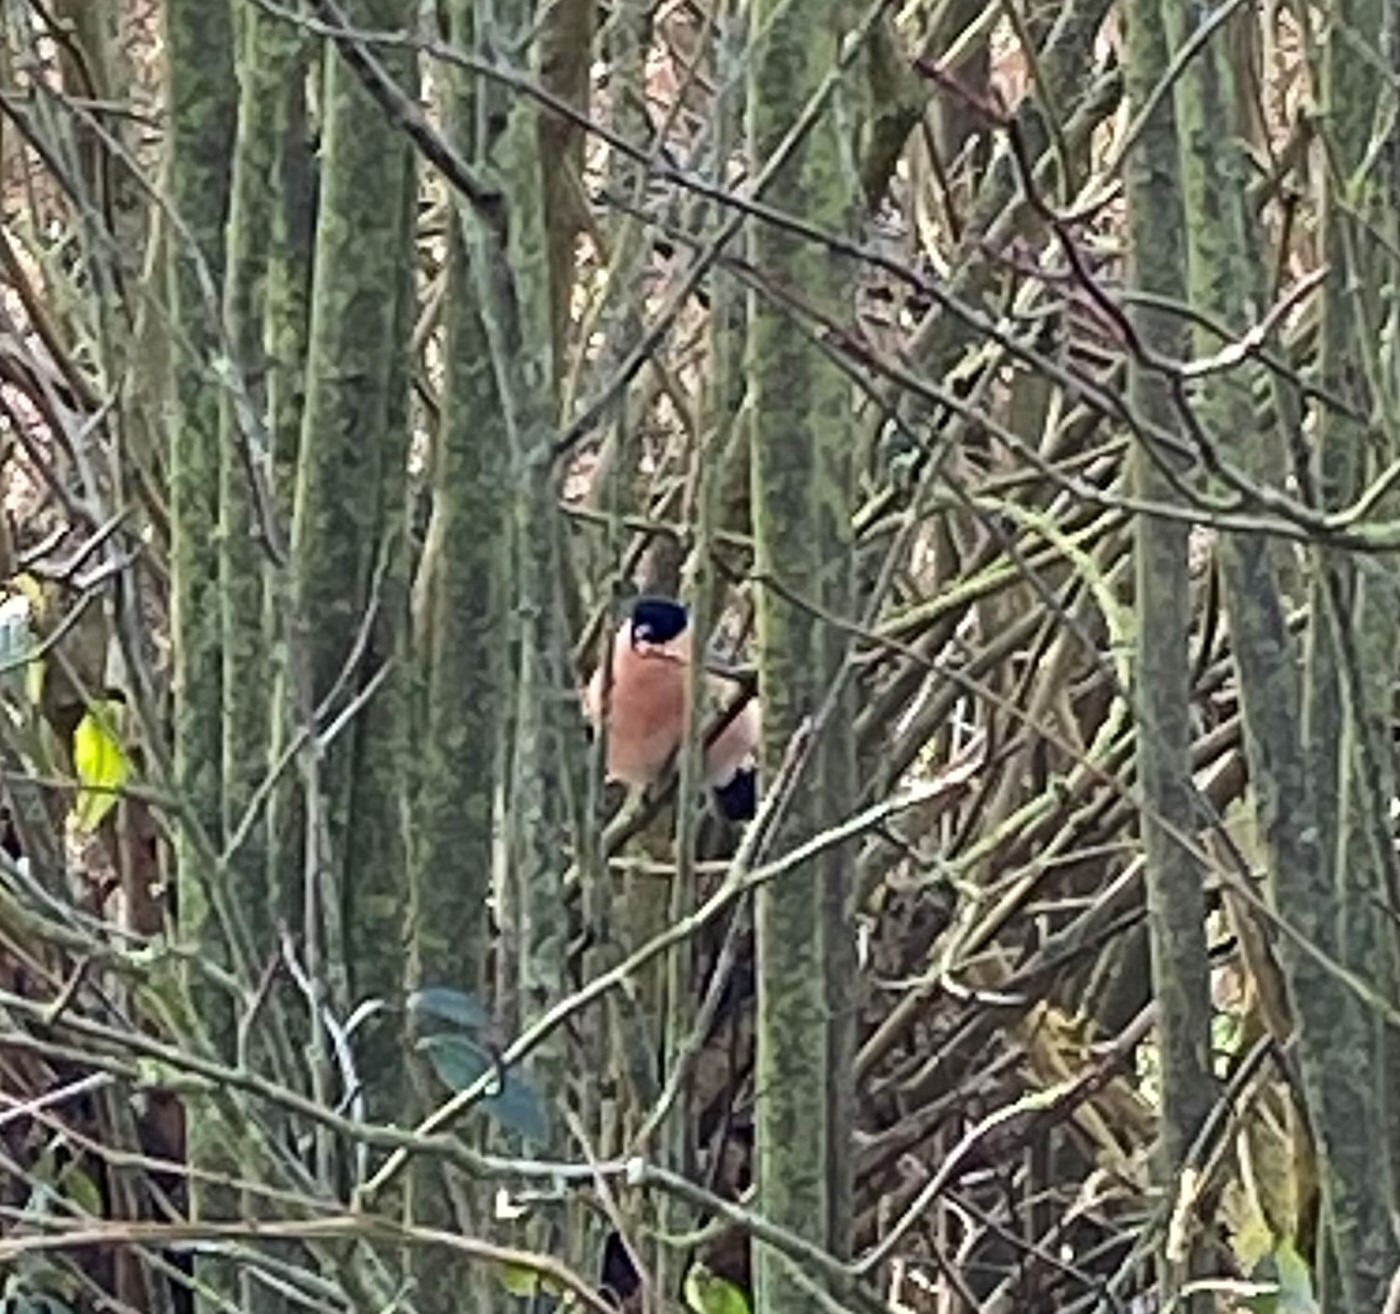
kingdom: Animalia
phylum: Chordata
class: Aves
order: Passeriformes
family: Fringillidae
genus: Pyrrhula
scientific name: Pyrrhula pyrrhula
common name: Dompap
